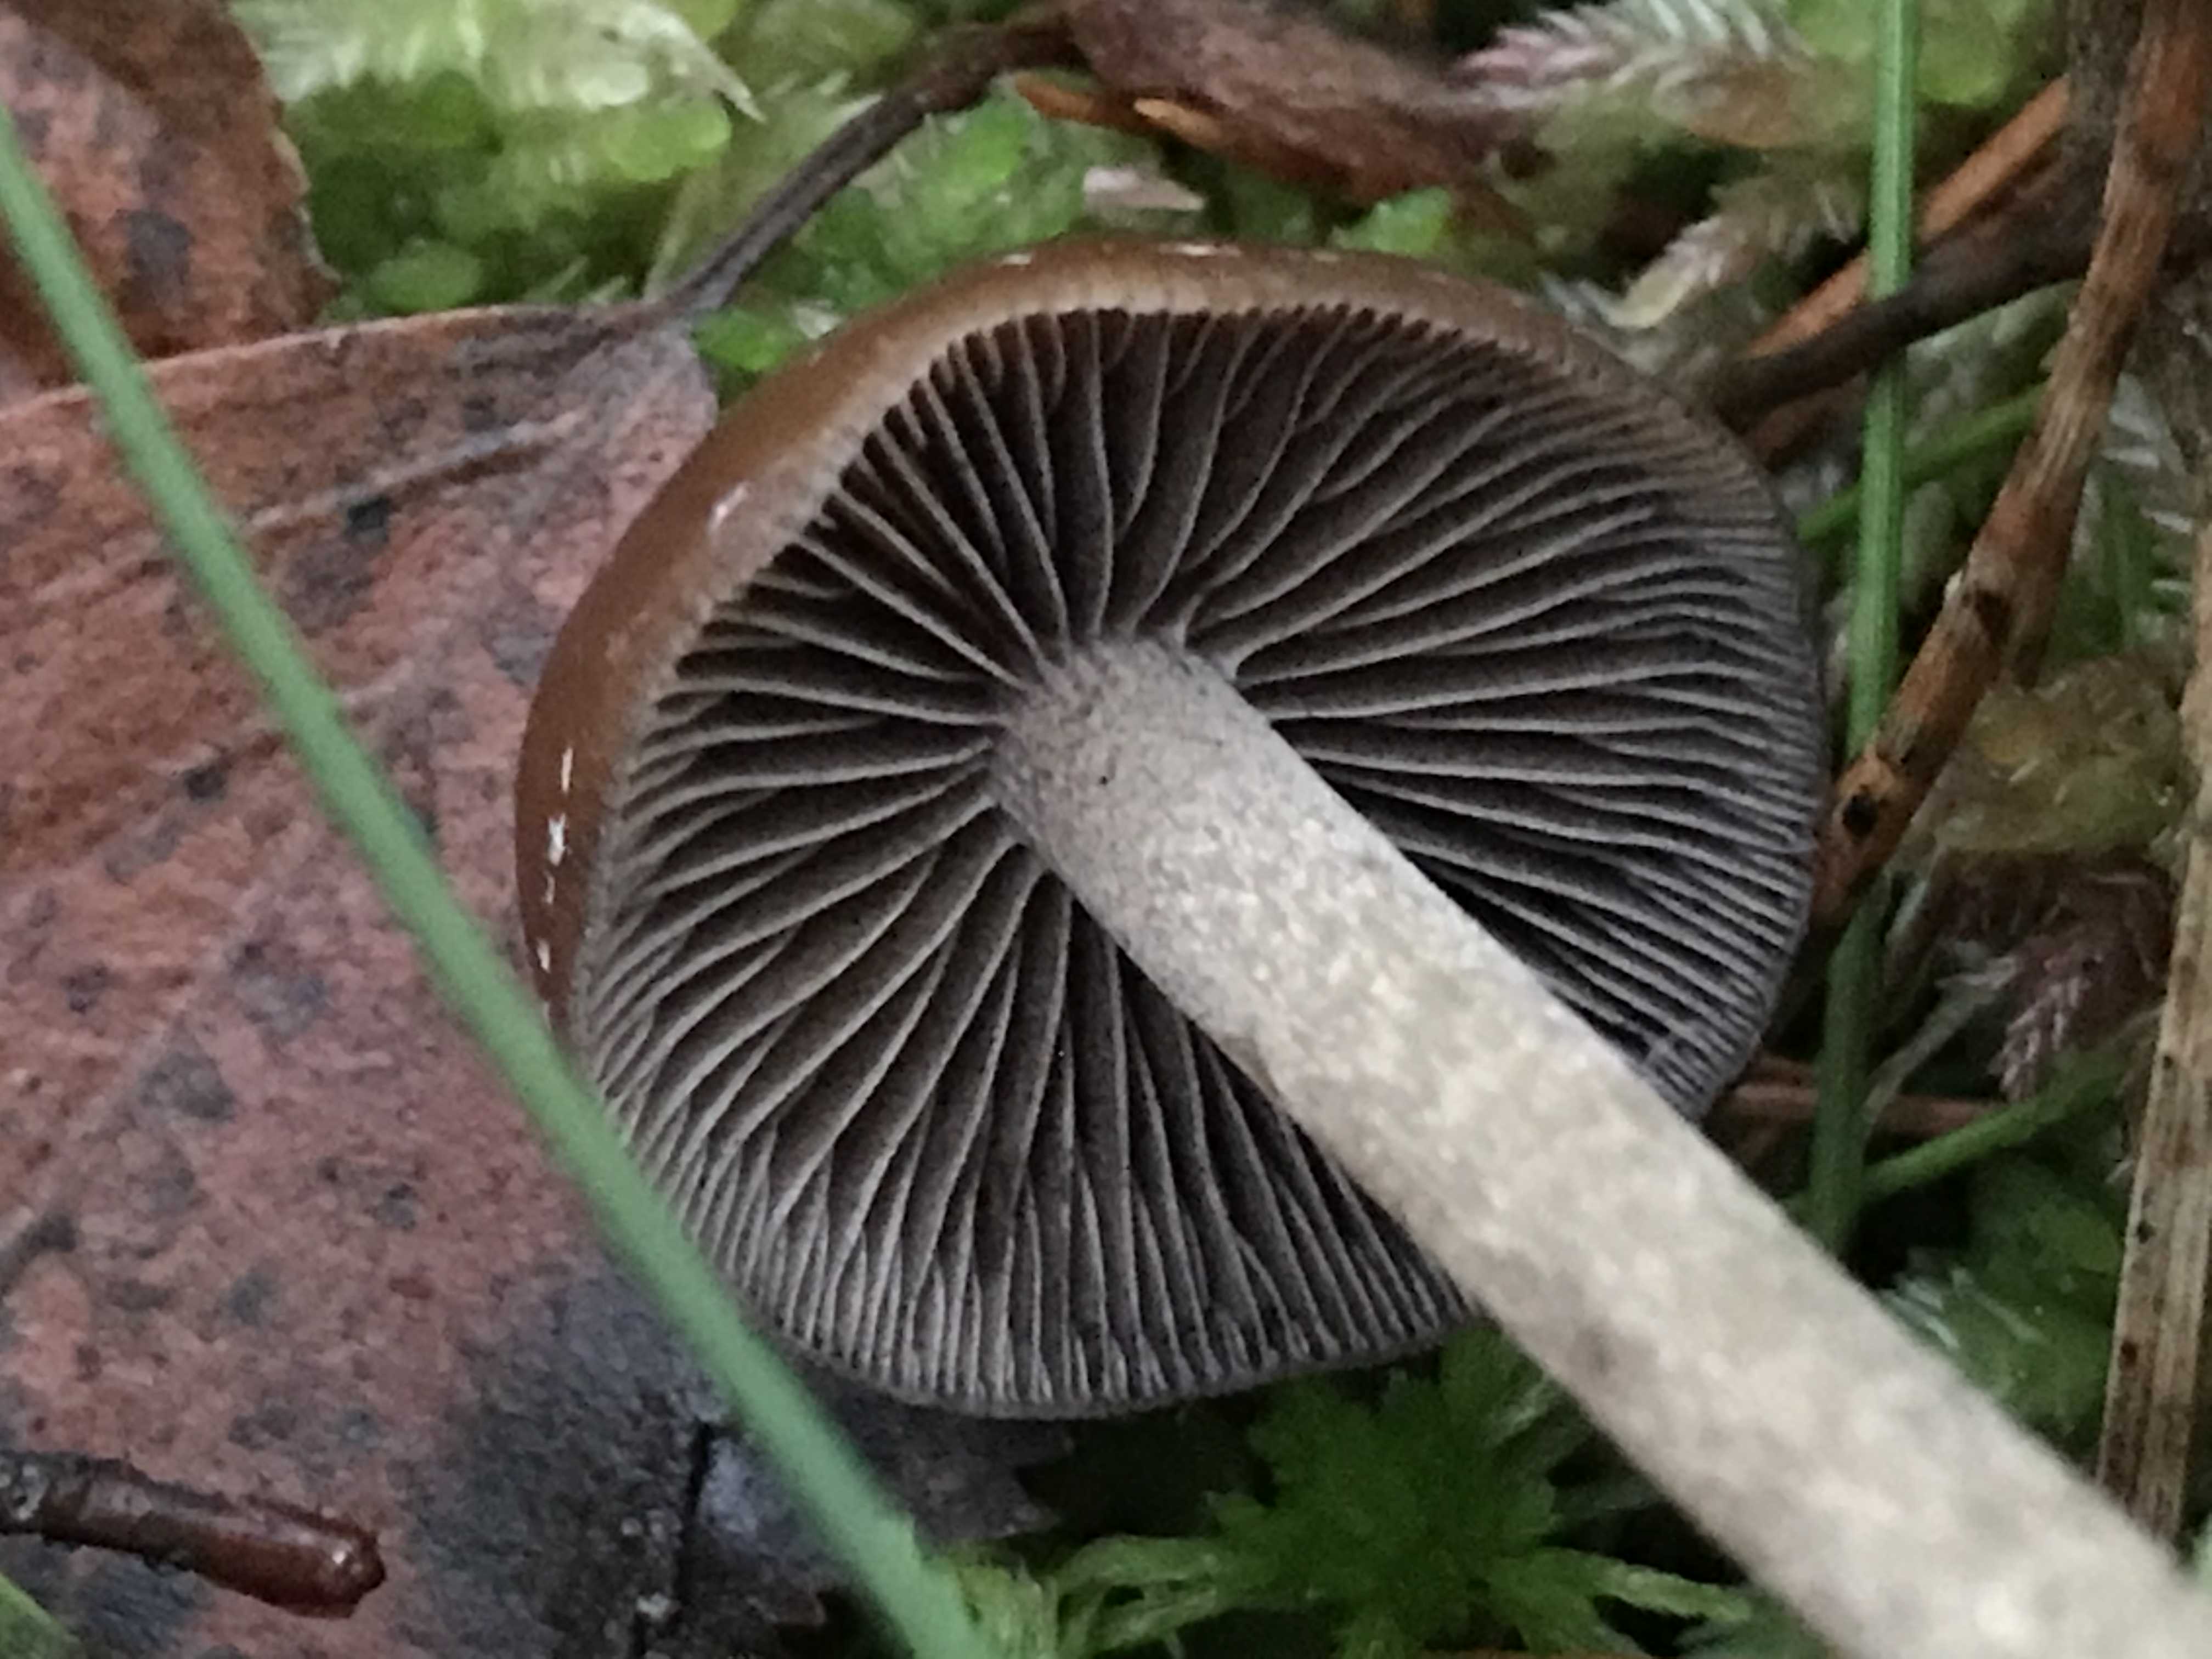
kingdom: Fungi
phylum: Basidiomycota
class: Agaricomycetes
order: Agaricales
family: Strophariaceae
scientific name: Strophariaceae
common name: bredbladfamilien
